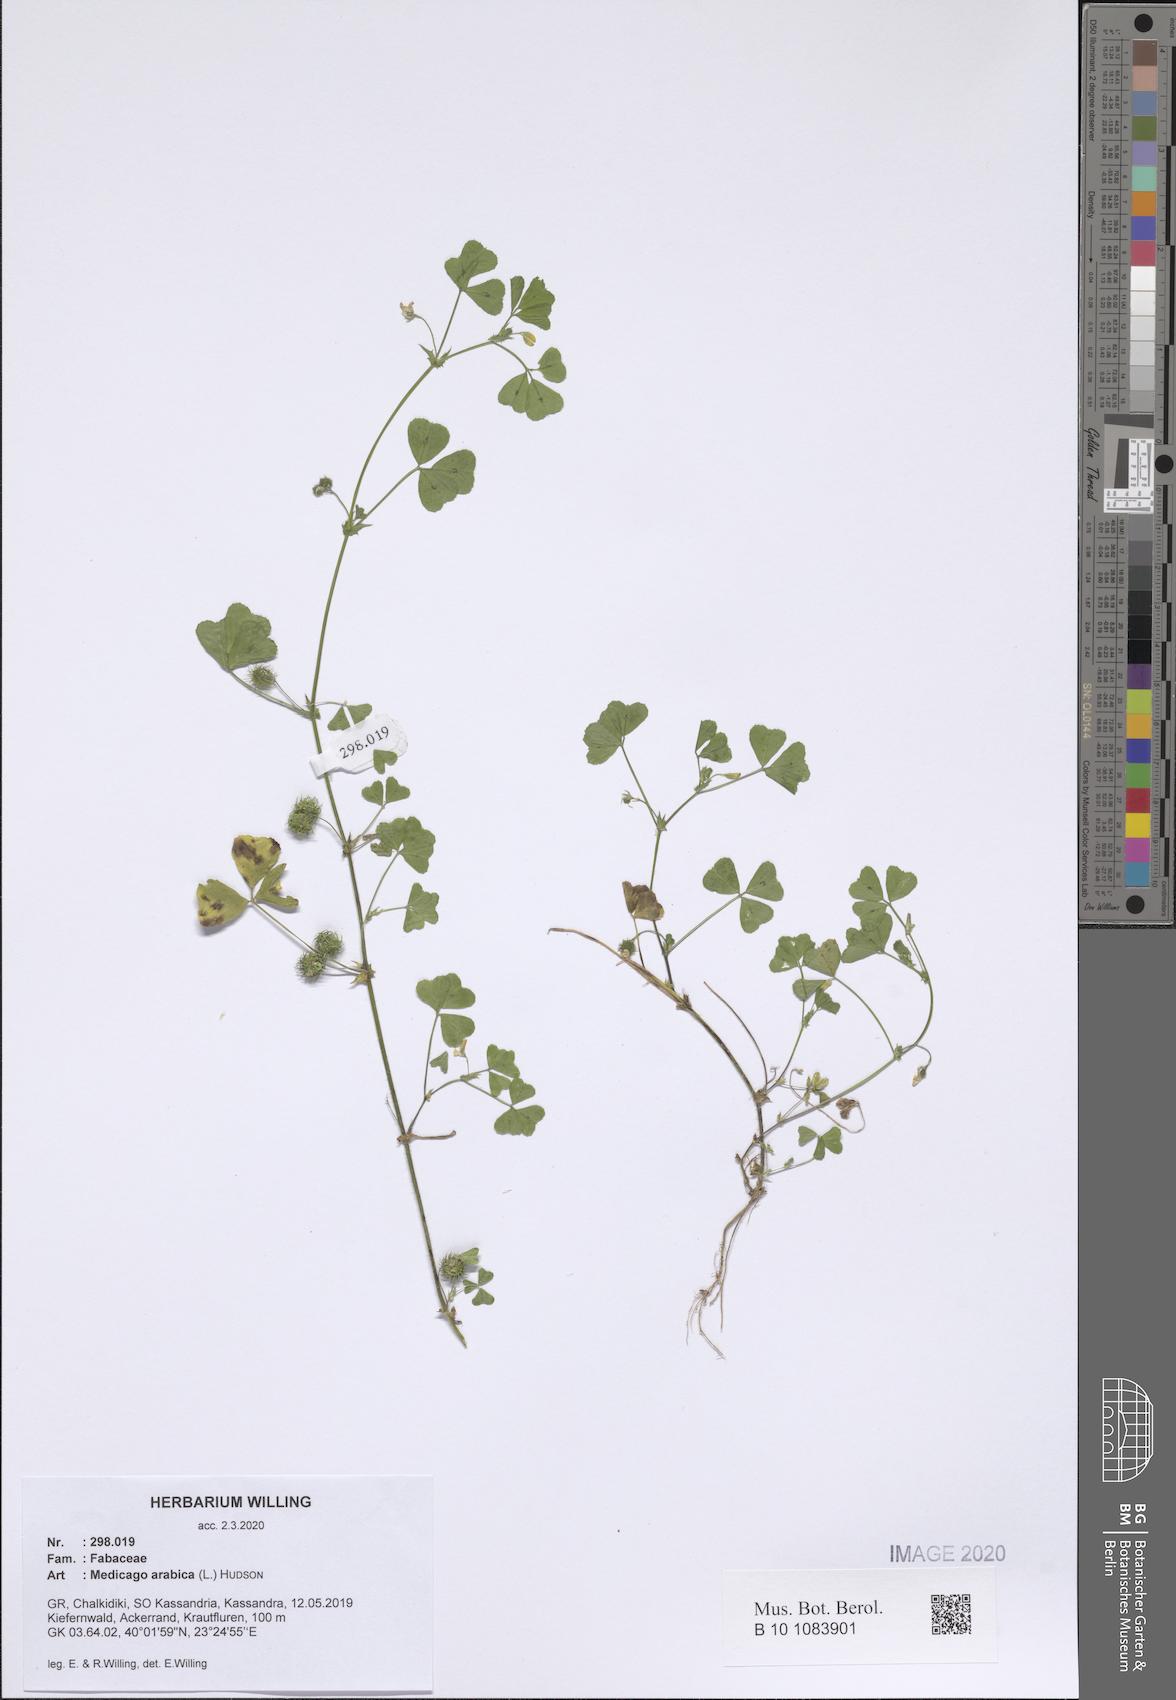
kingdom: Plantae
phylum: Tracheophyta
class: Magnoliopsida
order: Fabales
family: Fabaceae
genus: Medicago
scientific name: Medicago arabica
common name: Spotted medick
